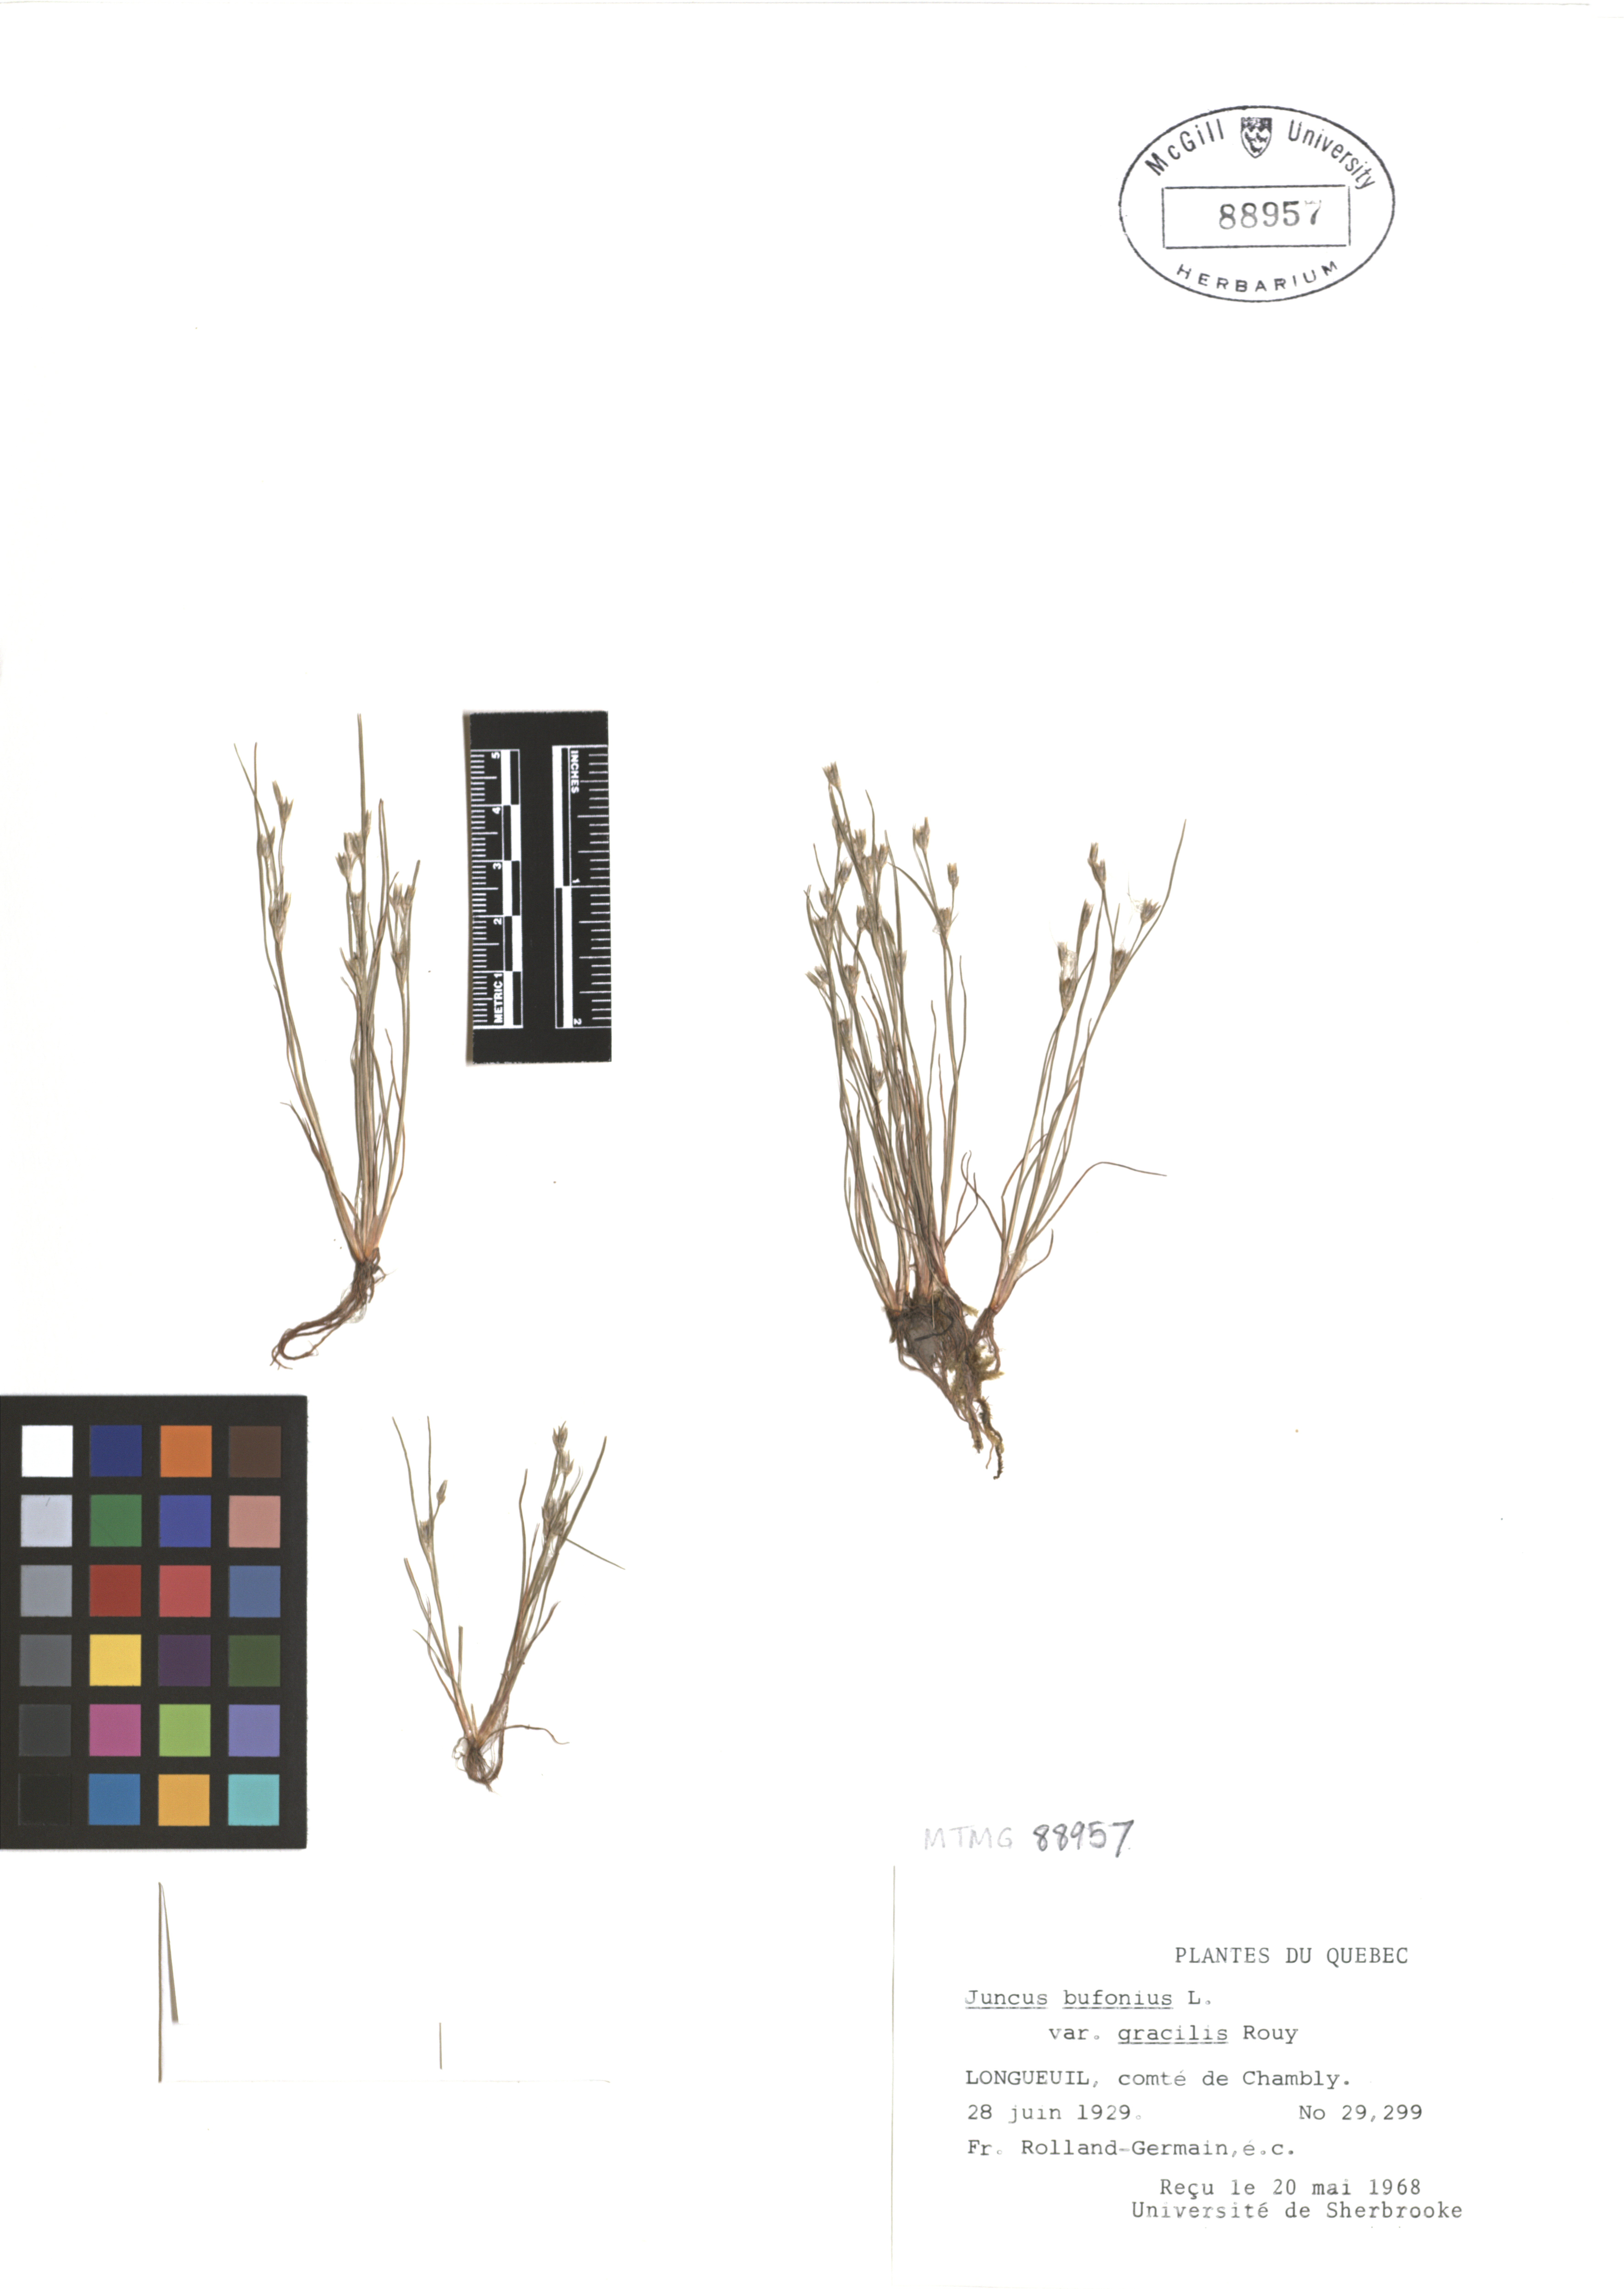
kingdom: Plantae
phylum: Tracheophyta
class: Liliopsida
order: Poales
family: Juncaceae
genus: Juncus
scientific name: Juncus bufonius
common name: Toad rush
